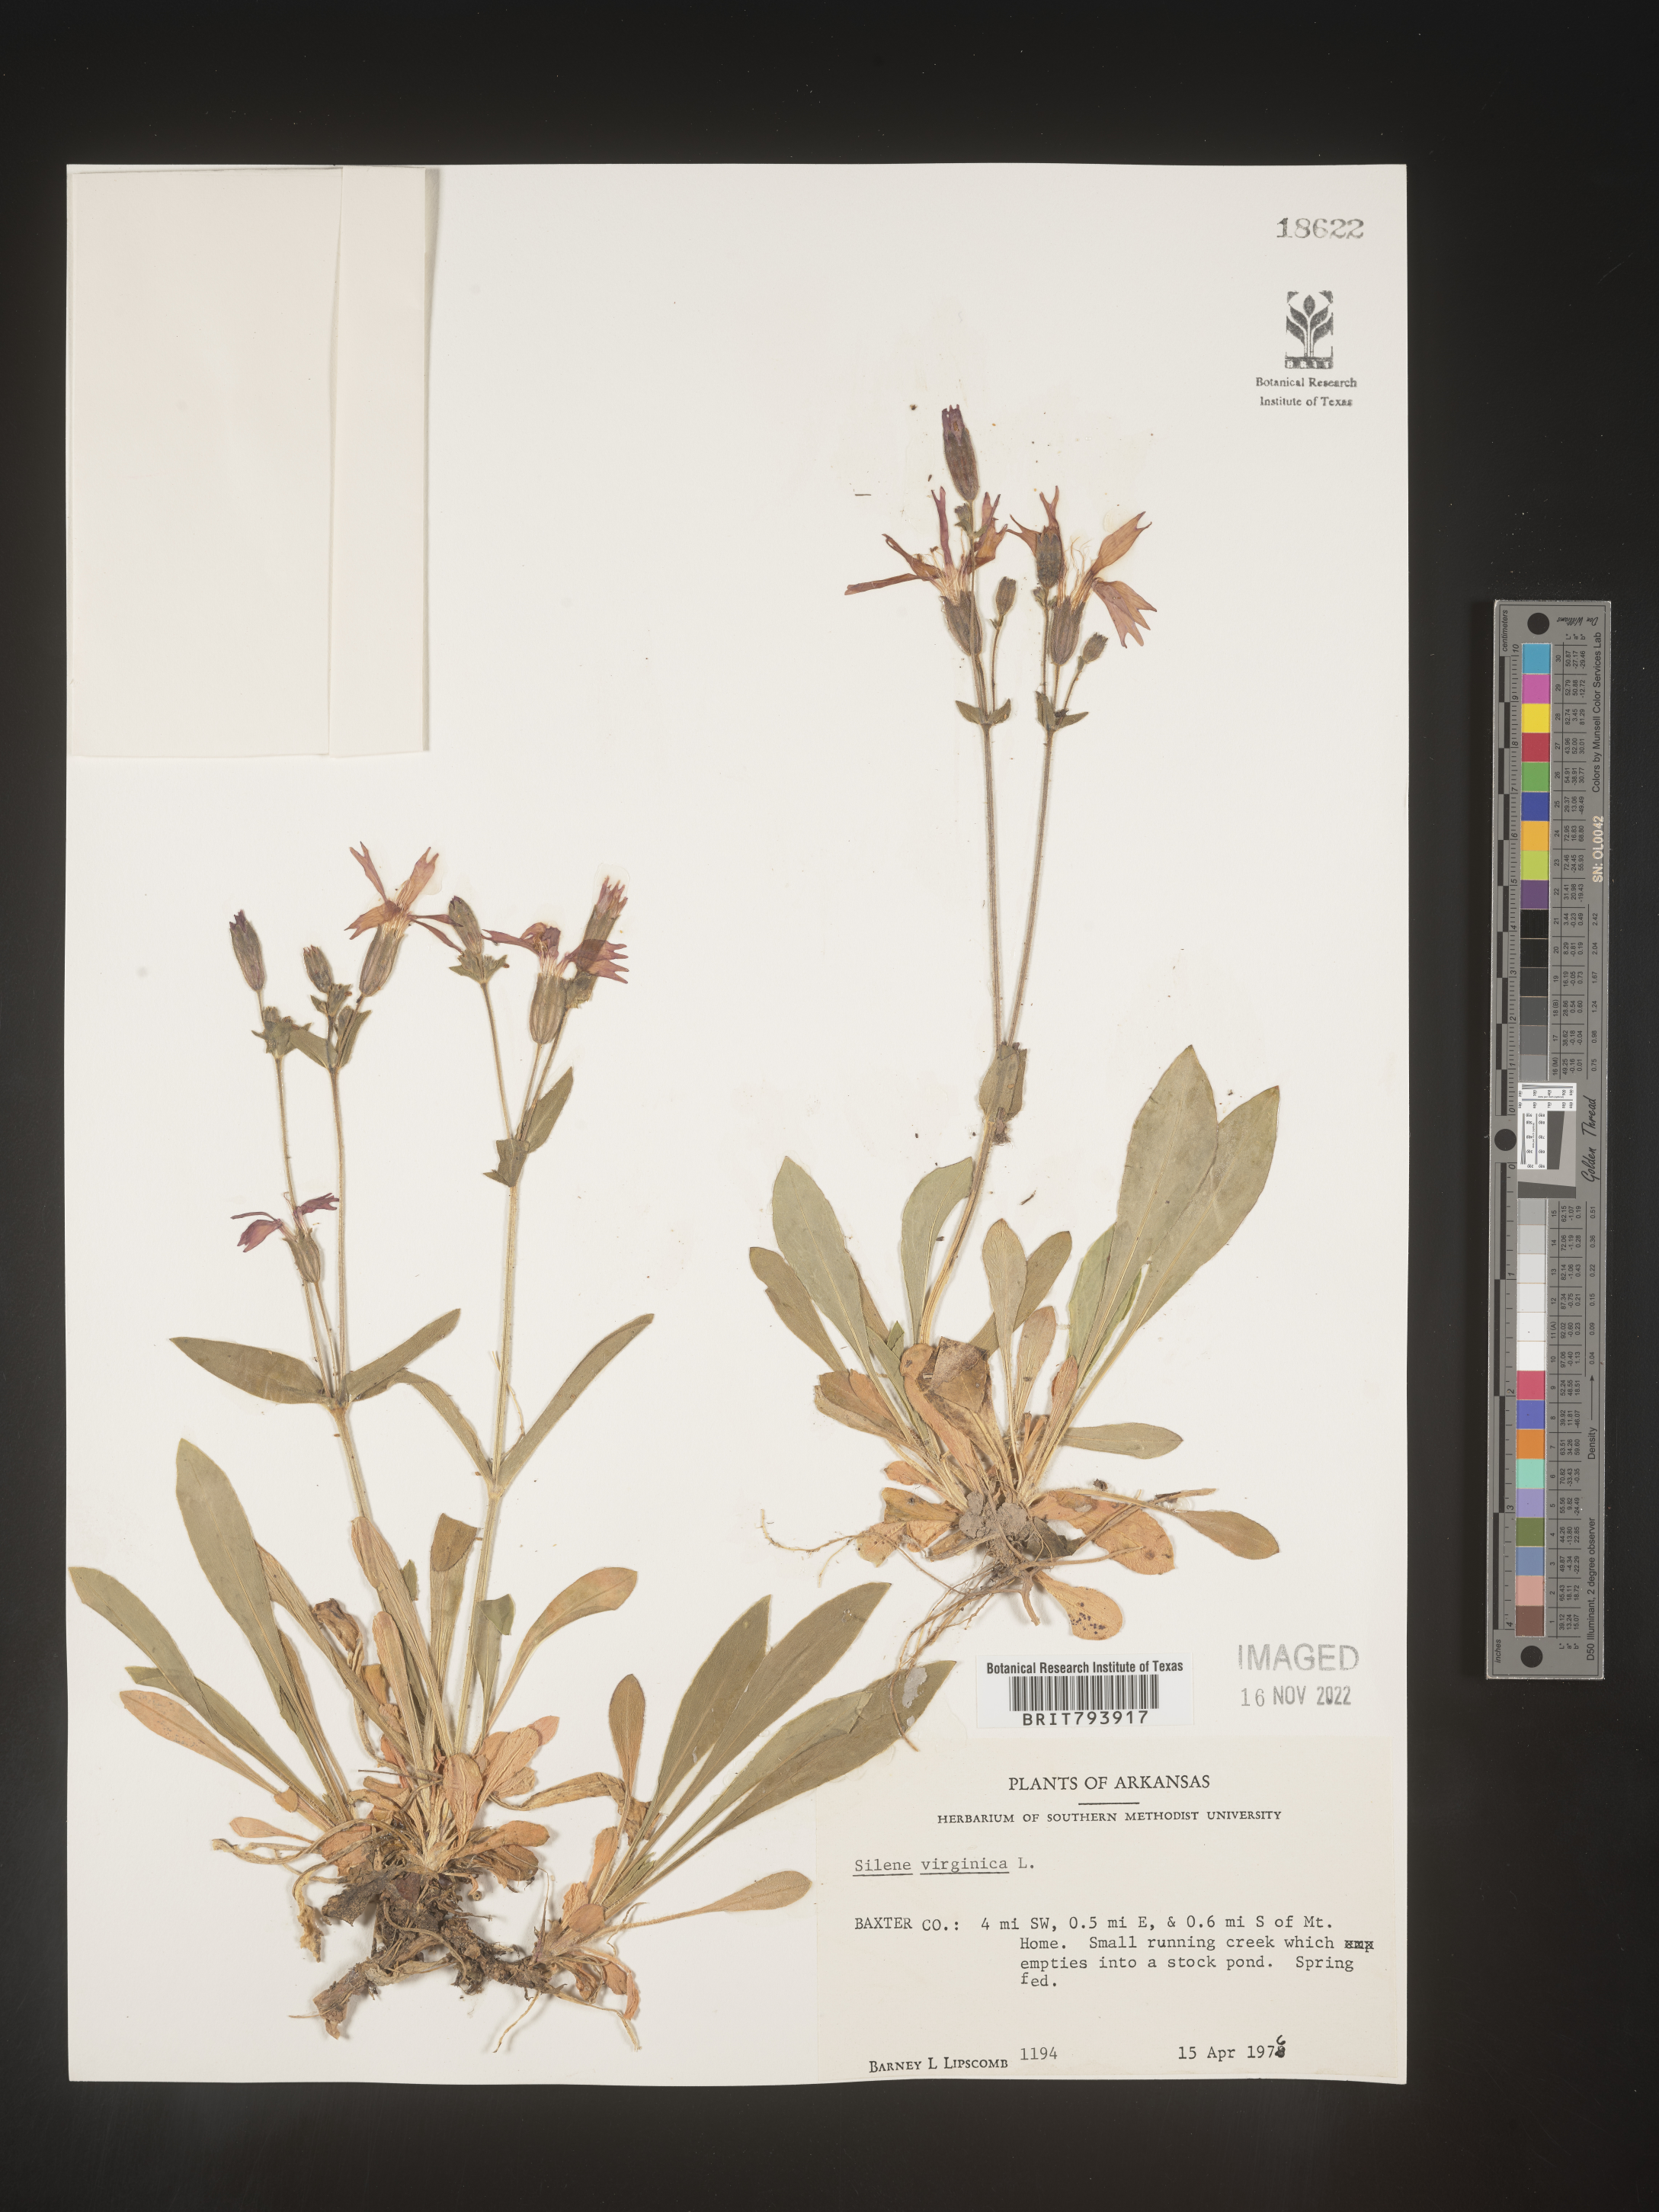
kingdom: Plantae
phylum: Tracheophyta
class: Magnoliopsida
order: Caryophyllales
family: Caryophyllaceae
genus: Silene
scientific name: Silene virginica
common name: Fire-pink
